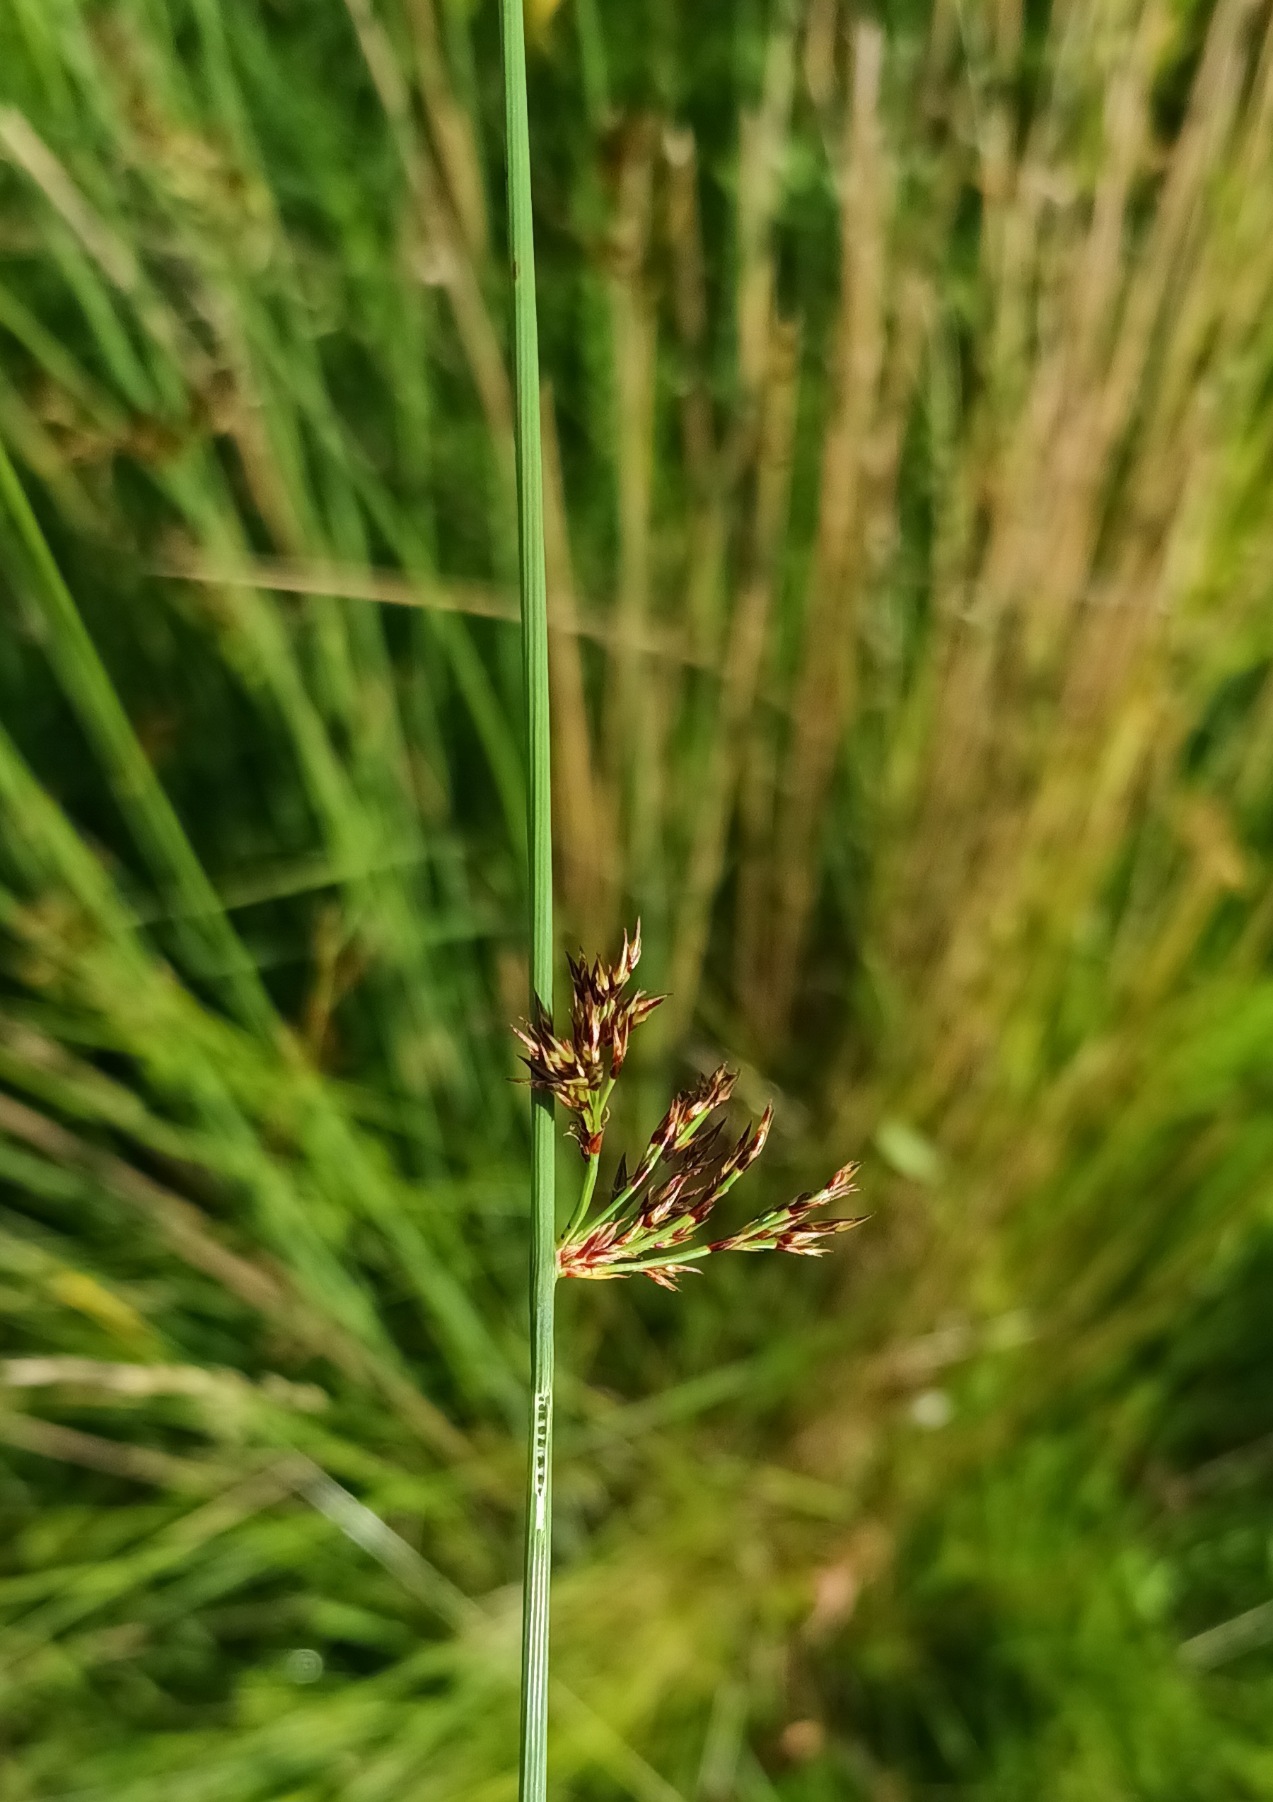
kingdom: Plantae
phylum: Tracheophyta
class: Liliopsida
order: Poales
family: Juncaceae
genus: Juncus
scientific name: Juncus inflexus
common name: Blågrå siv
